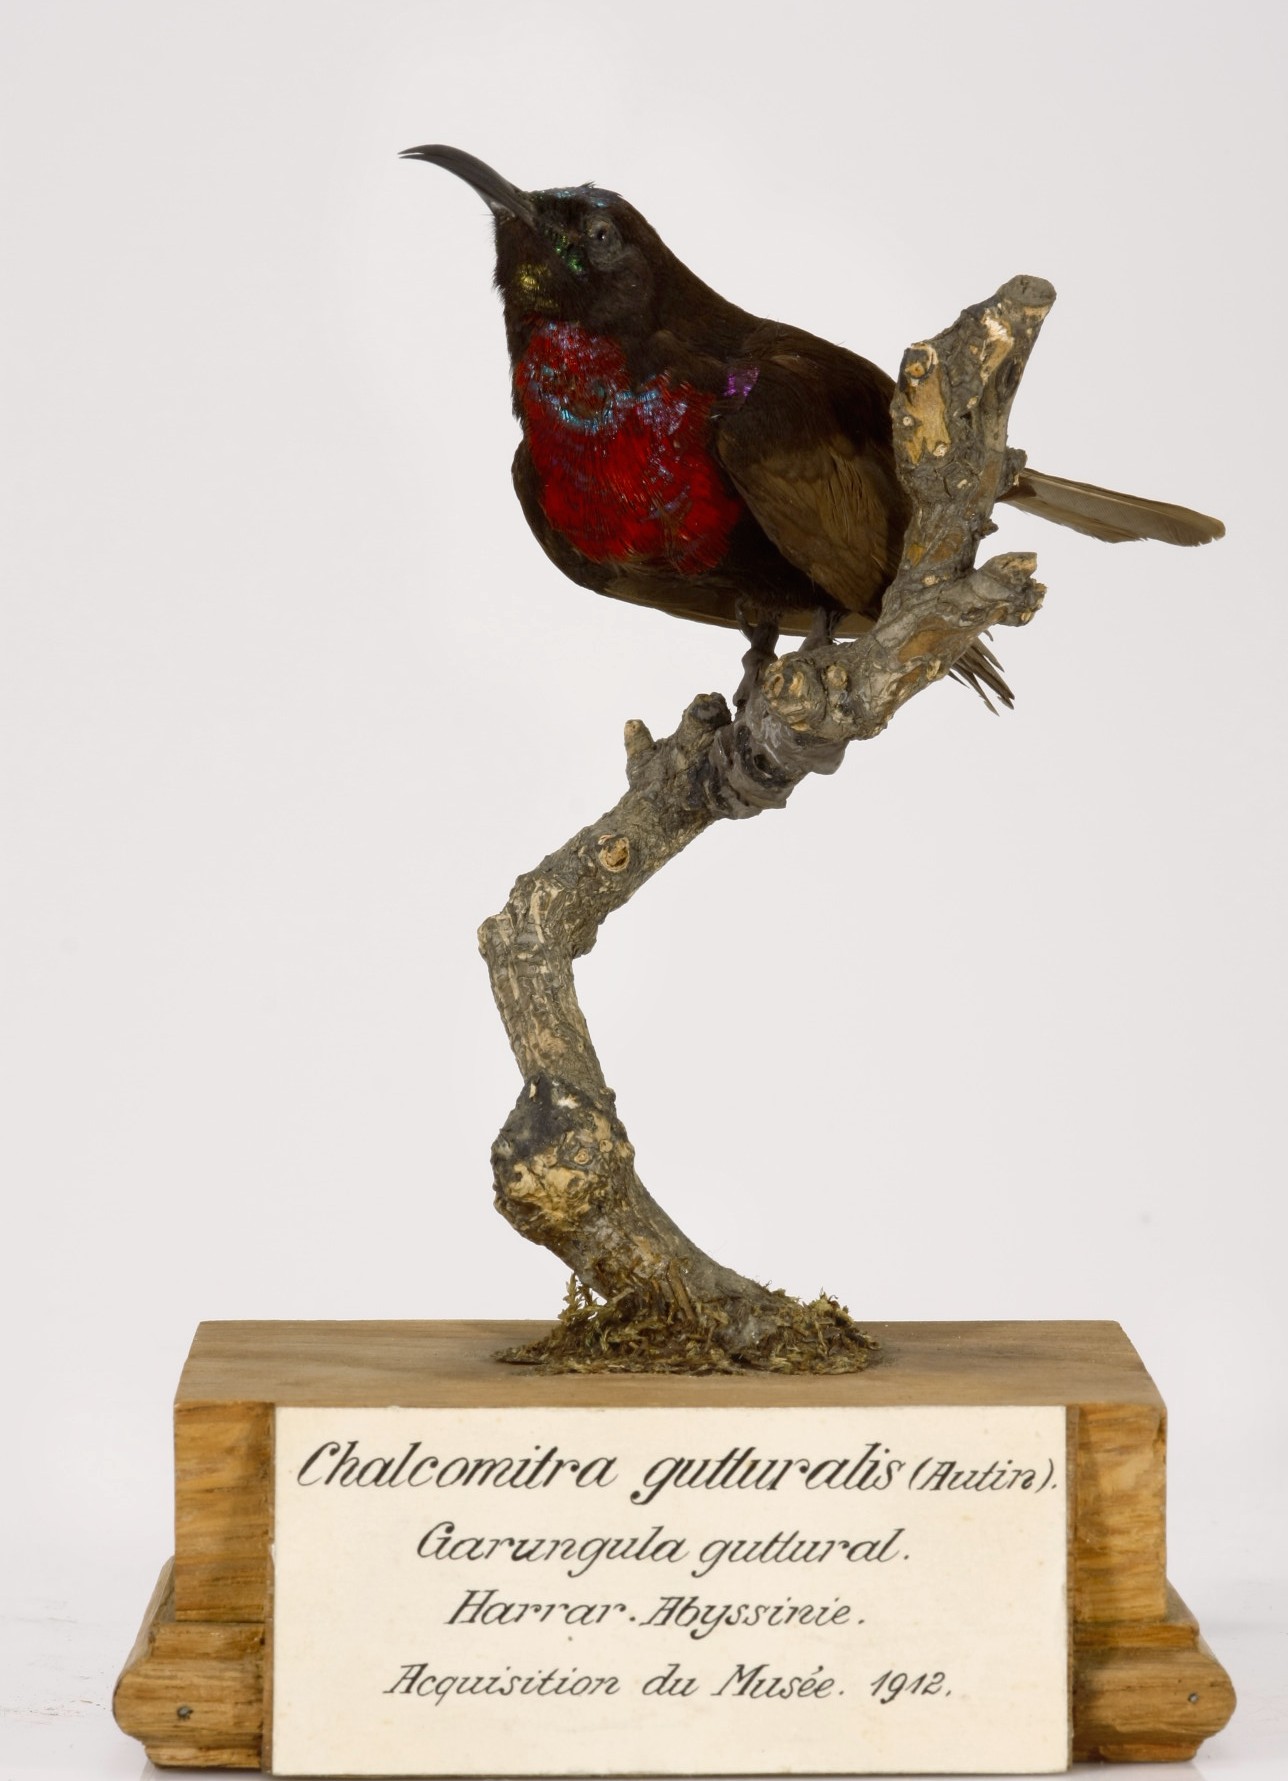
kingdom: Animalia
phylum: Chordata
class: Aves
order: Passeriformes
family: Nectariniidae
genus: Chalcomitra
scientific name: Chalcomitra hunteri
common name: Hunter's sunbird
